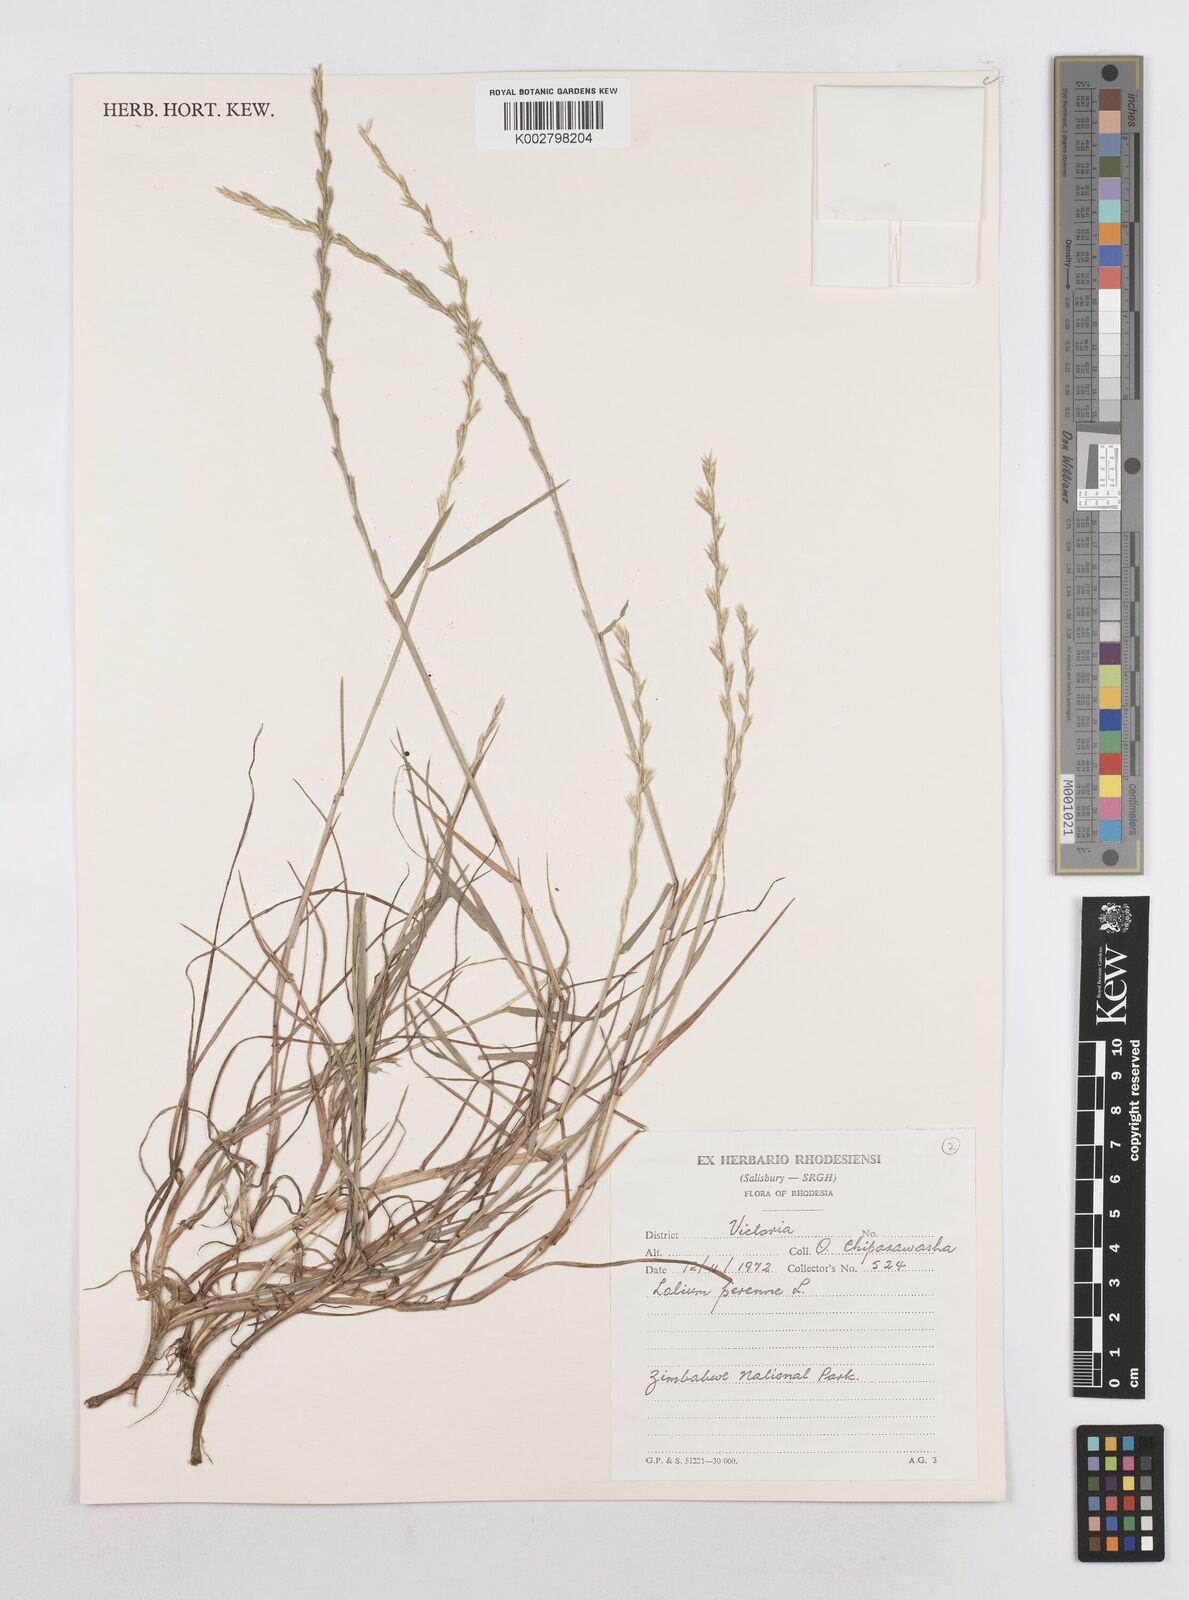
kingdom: Plantae
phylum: Tracheophyta
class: Liliopsida
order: Poales
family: Poaceae
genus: Lolium
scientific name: Lolium perenne
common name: Perennial ryegrass
